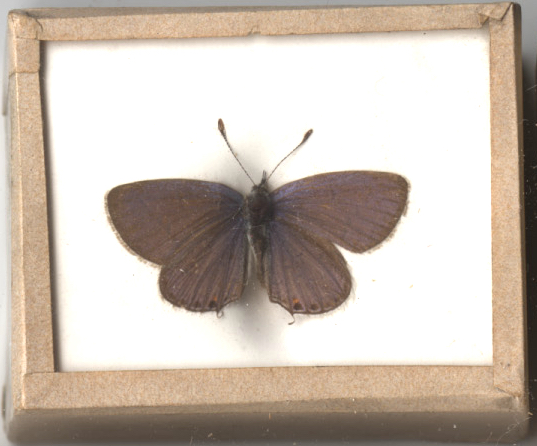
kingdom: Animalia
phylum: Arthropoda
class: Insecta
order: Lepidoptera
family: Lycaenidae
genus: Elkalyce
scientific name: Elkalyce comyntas
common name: Eastern Tailed Blue
